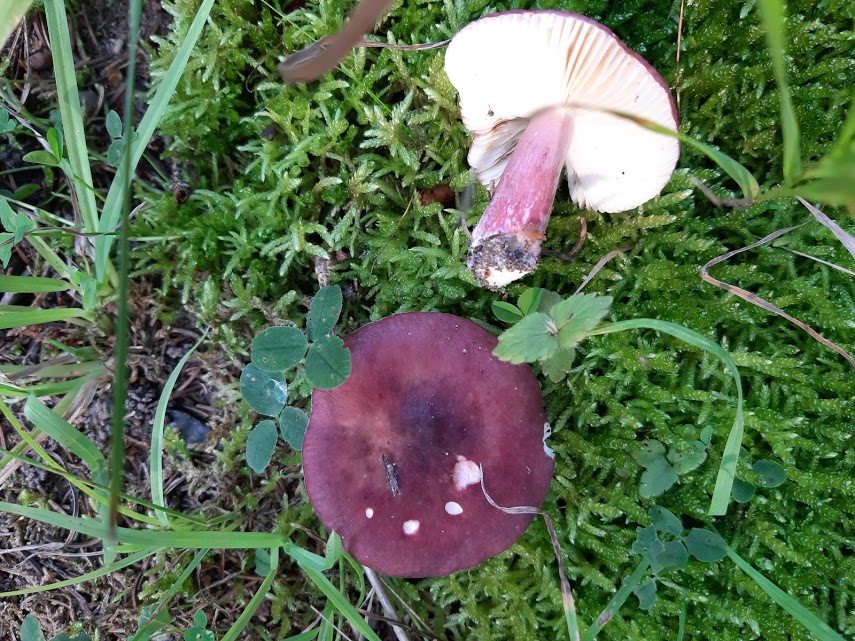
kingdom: Fungi
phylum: Basidiomycota
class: Agaricomycetes
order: Russulales
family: Russulaceae
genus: Russula
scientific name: Russula queletii
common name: Quélets skørhat
